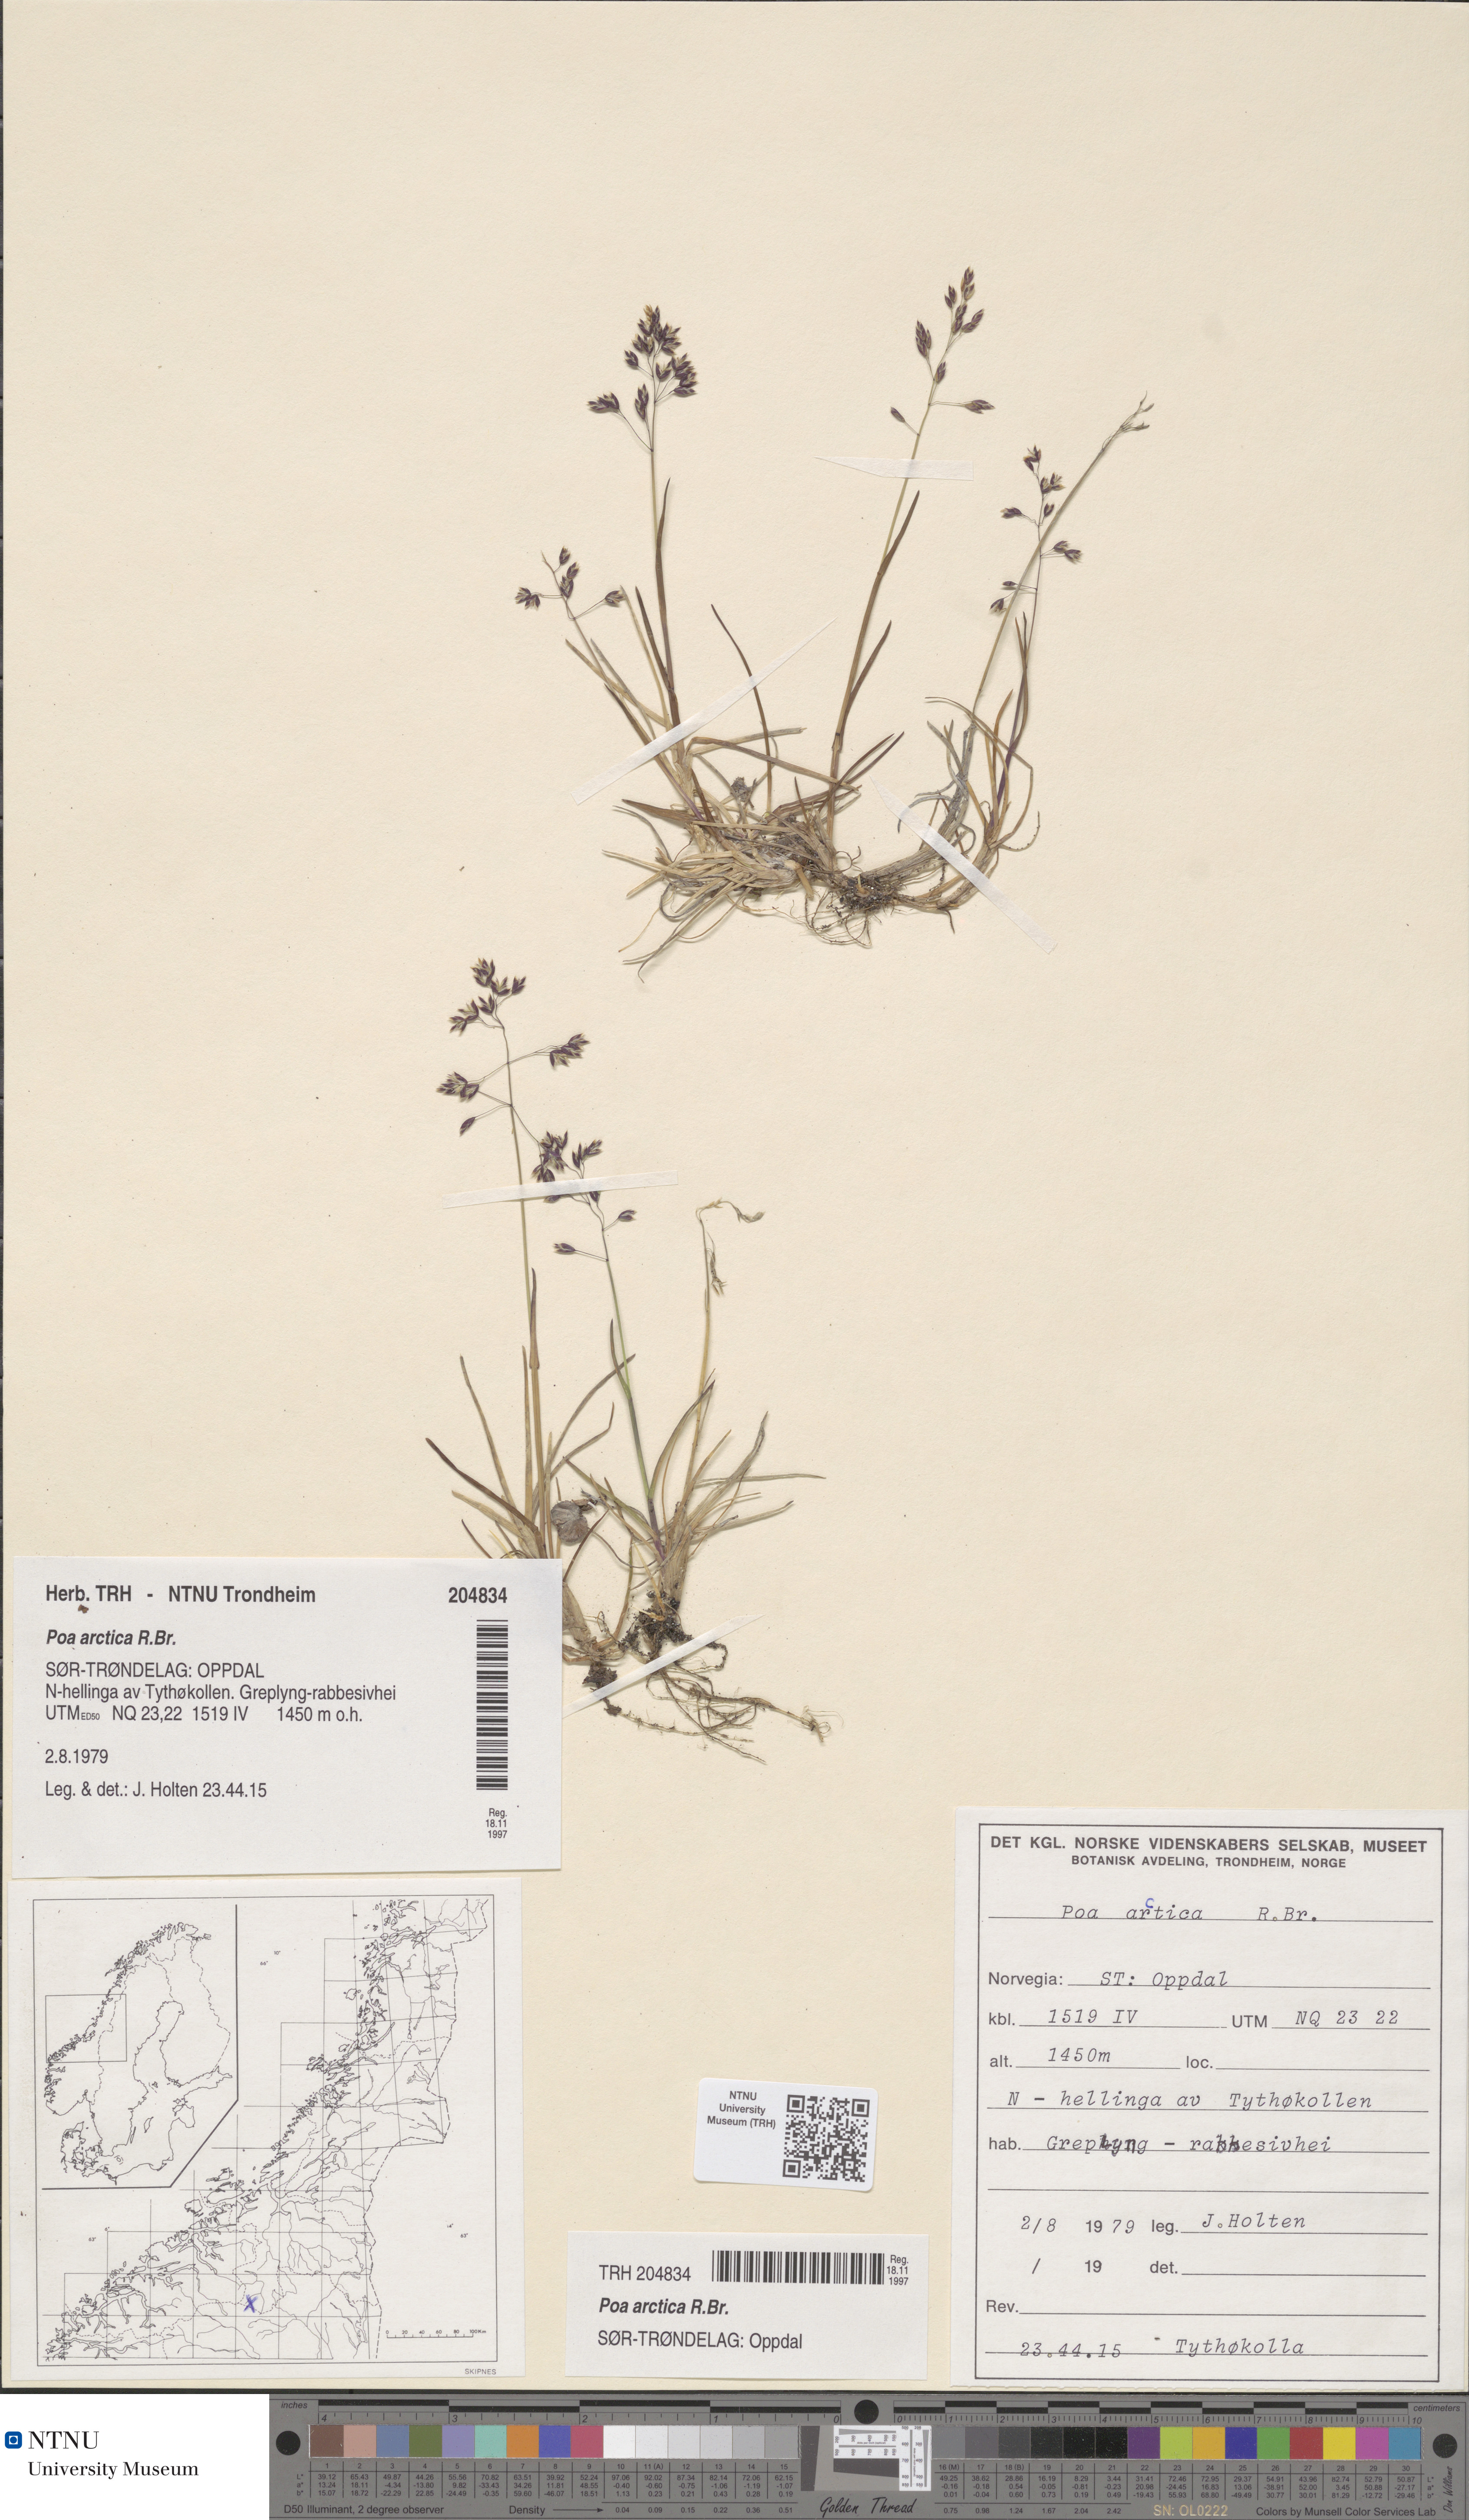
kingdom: Plantae
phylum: Tracheophyta
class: Liliopsida
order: Poales
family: Poaceae
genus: Poa
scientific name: Poa arctica
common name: Arctic bluegrass
